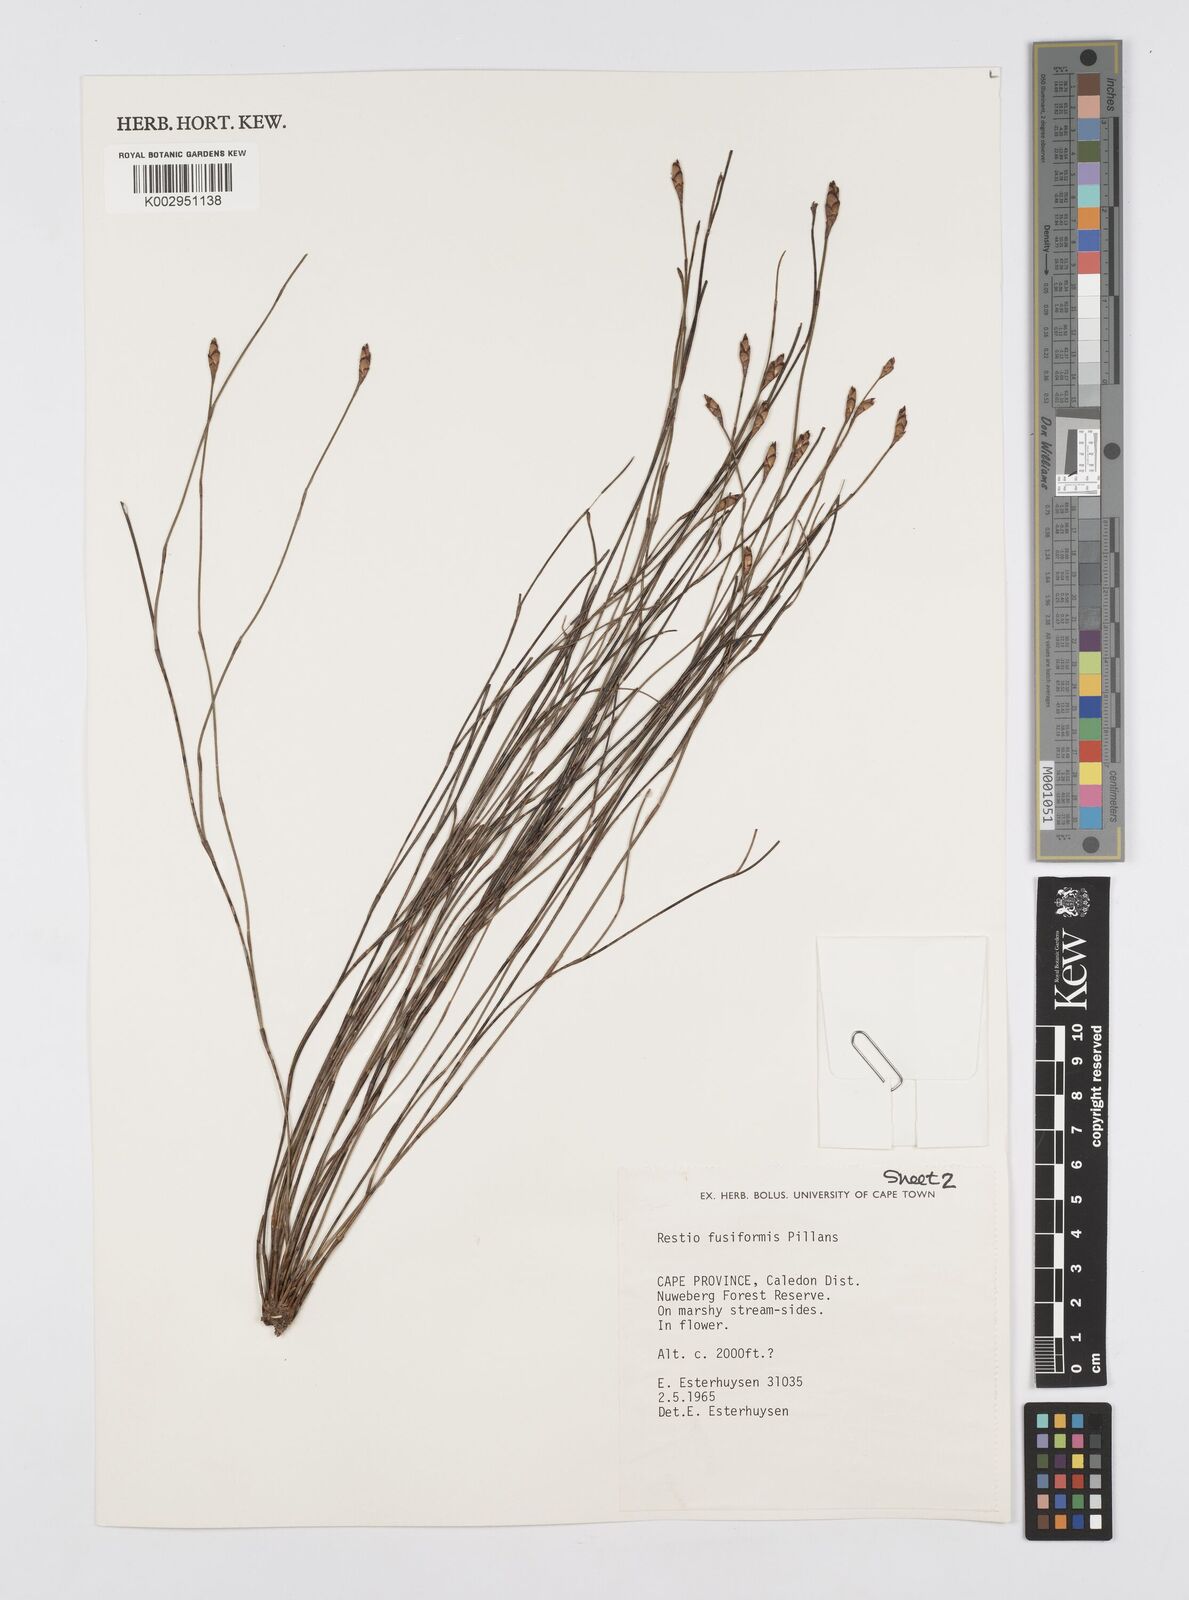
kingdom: Plantae
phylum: Tracheophyta
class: Liliopsida
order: Poales
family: Restionaceae
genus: Restio
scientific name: Restio fusiformis
